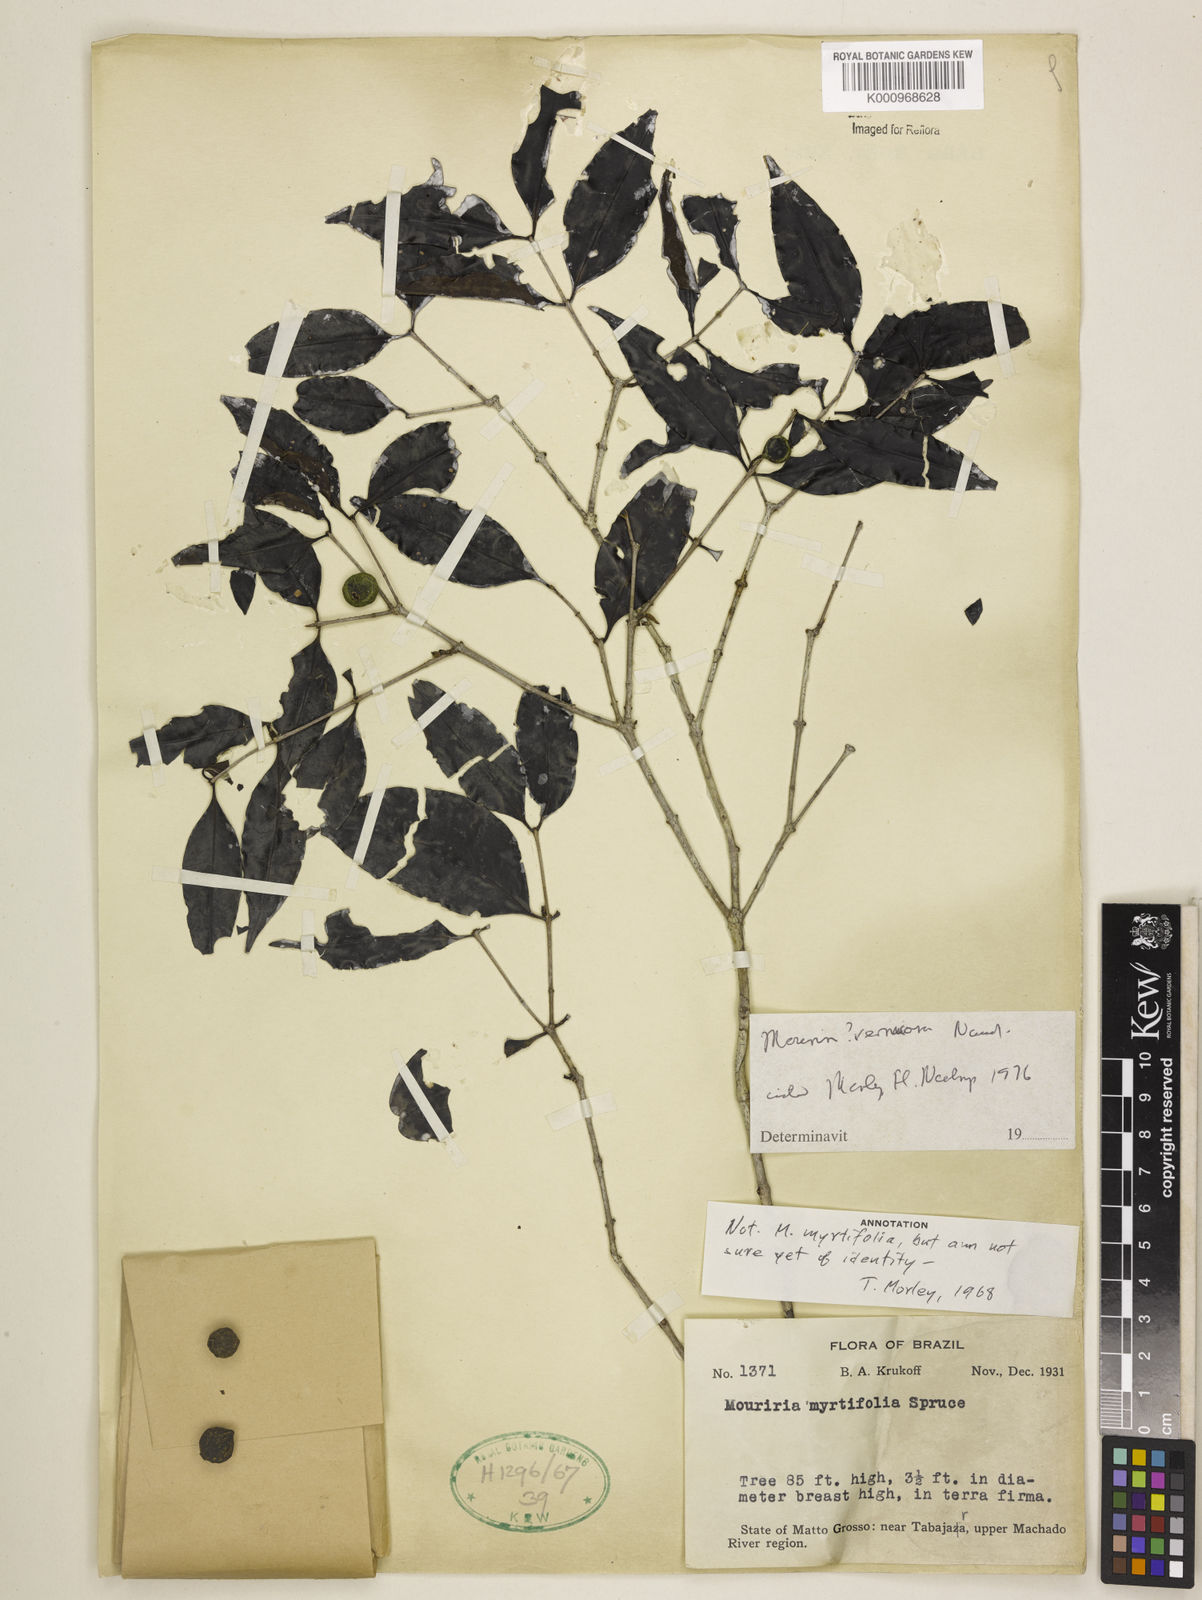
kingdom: Plantae
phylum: Tracheophyta
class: Magnoliopsida
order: Myrtales
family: Melastomataceae
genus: Mouriri
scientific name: Mouriri vernicosa
